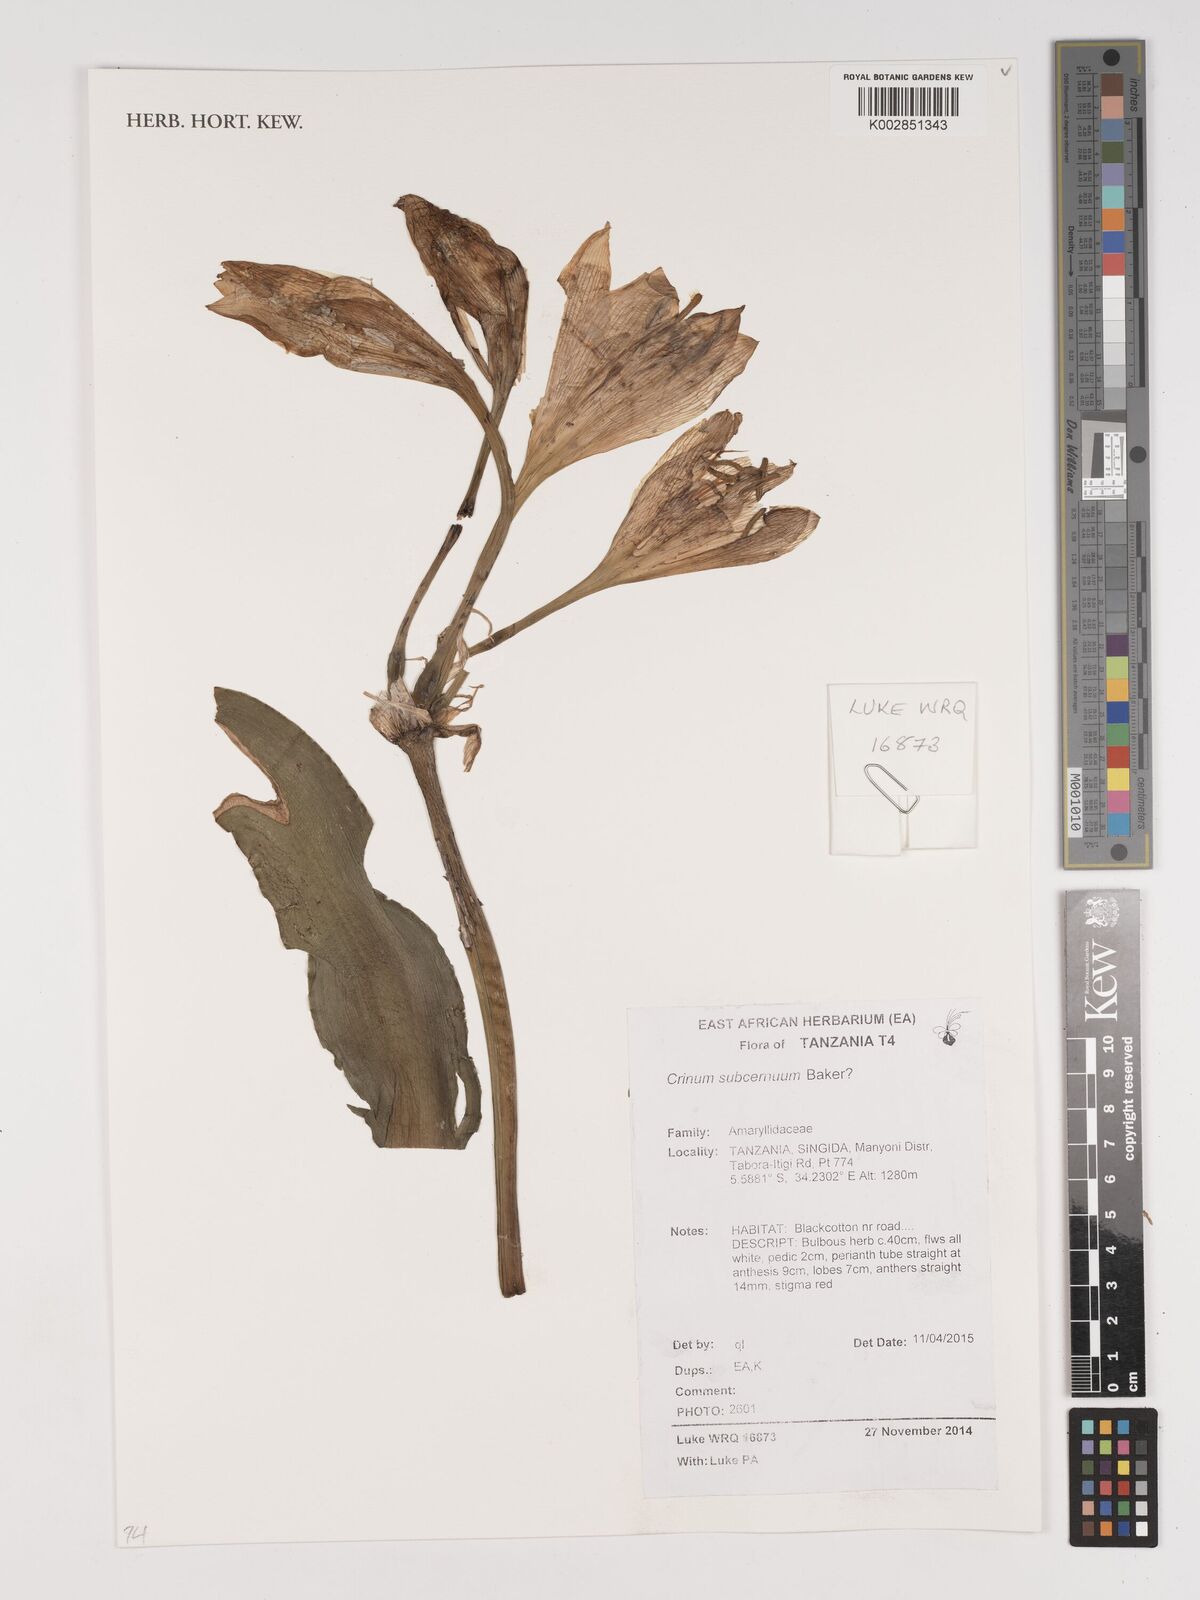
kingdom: Plantae
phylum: Tracheophyta
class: Liliopsida
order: Asparagales
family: Amaryllidaceae
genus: Crinum
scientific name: Crinum subcernuum
